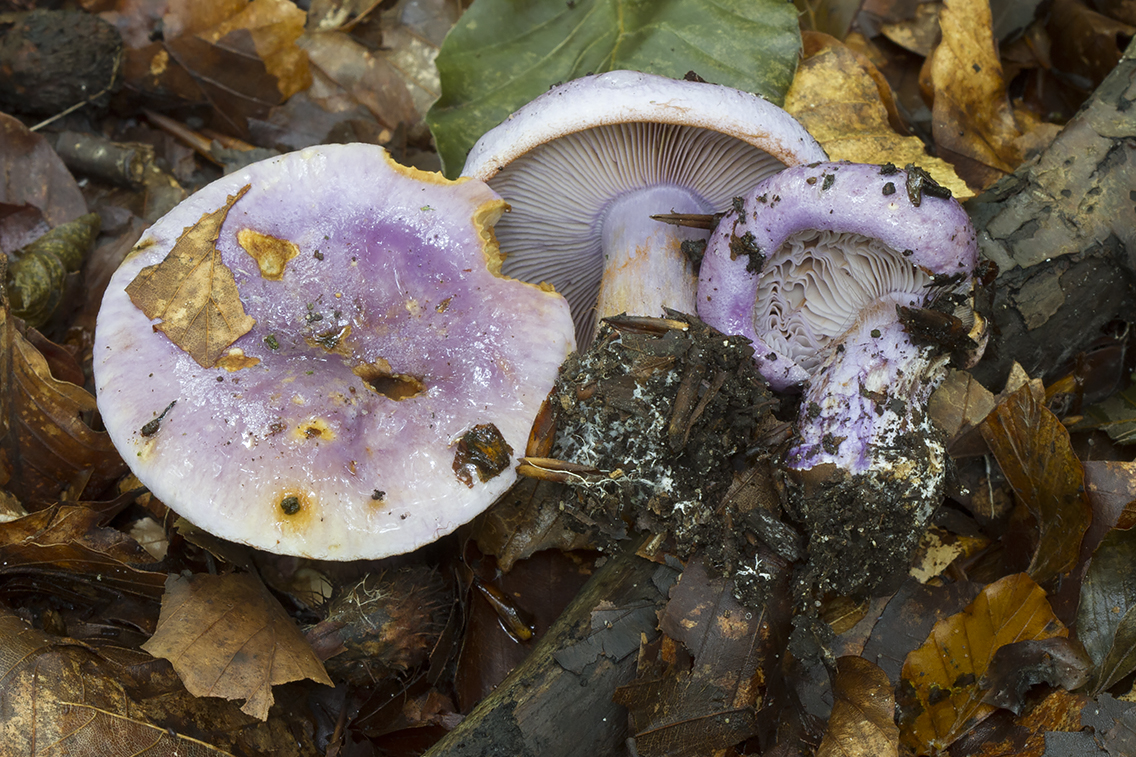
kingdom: Fungi
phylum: Basidiomycota
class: Agaricomycetes
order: Agaricales
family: Cortinariaceae
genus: Calonarius
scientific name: Calonarius sodagnitus
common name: violblå slørhat
